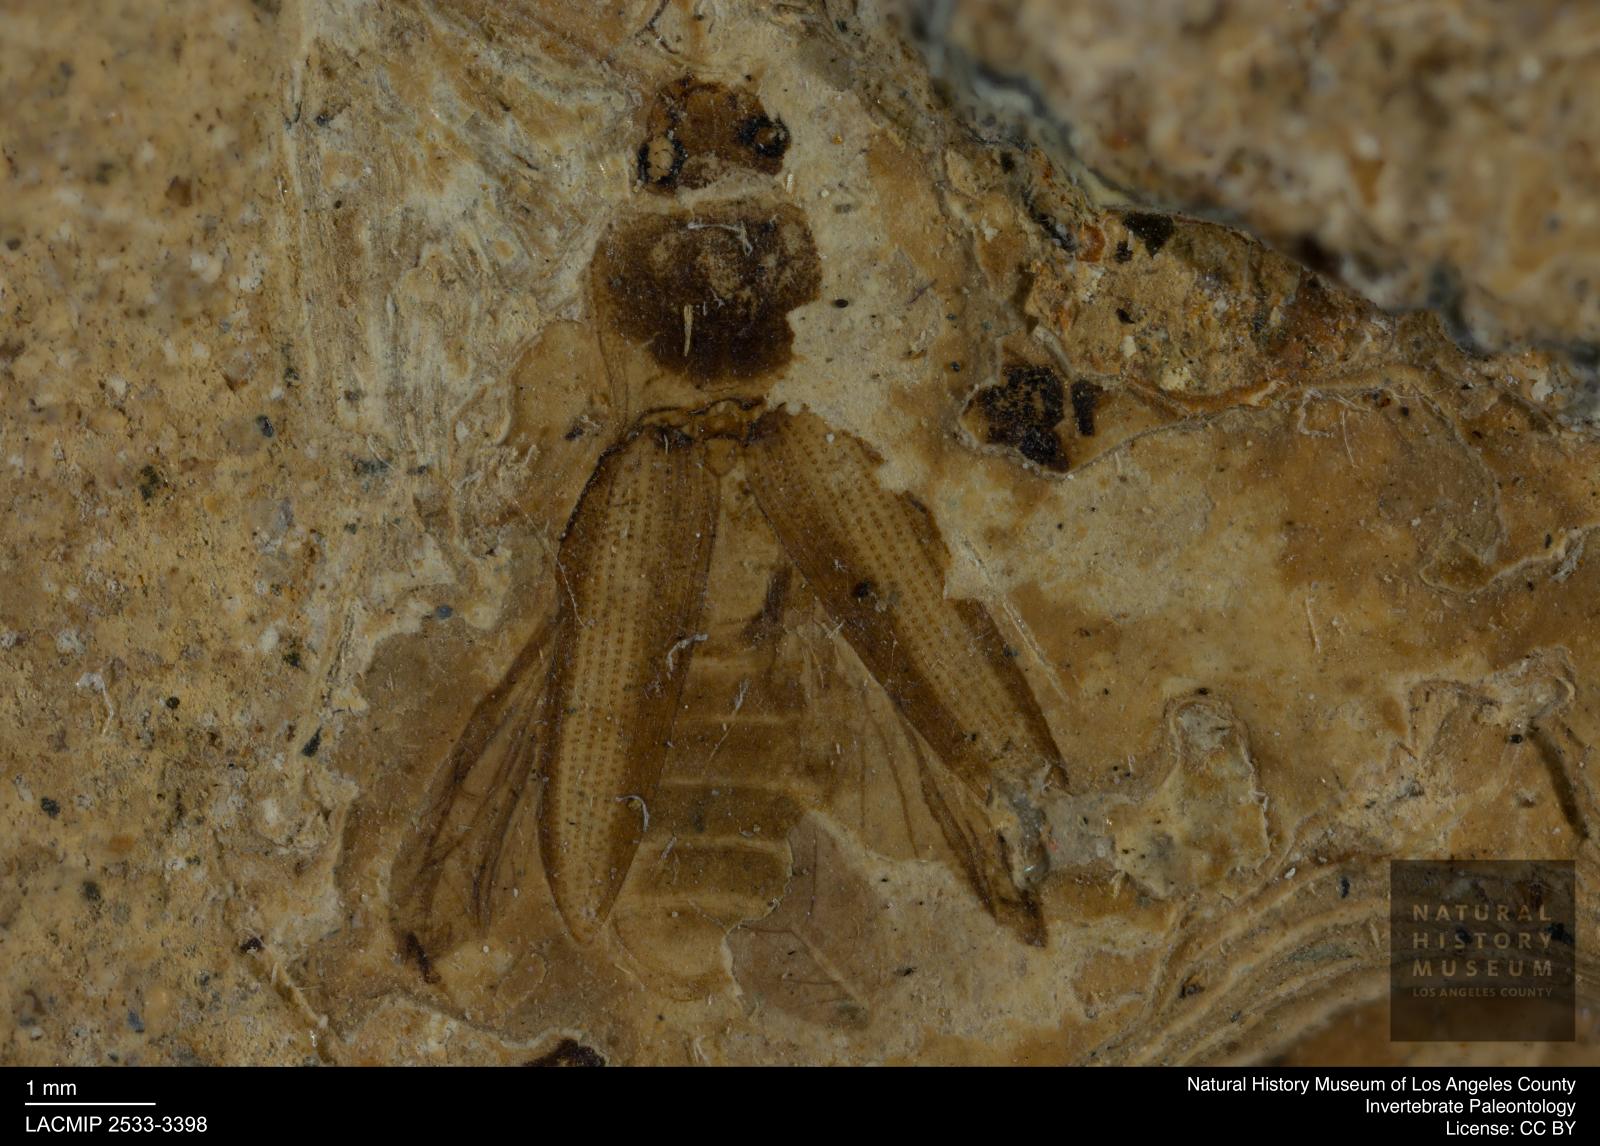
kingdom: Animalia
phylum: Arthropoda
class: Insecta
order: Coleoptera
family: Elateridae
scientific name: Elateridae
